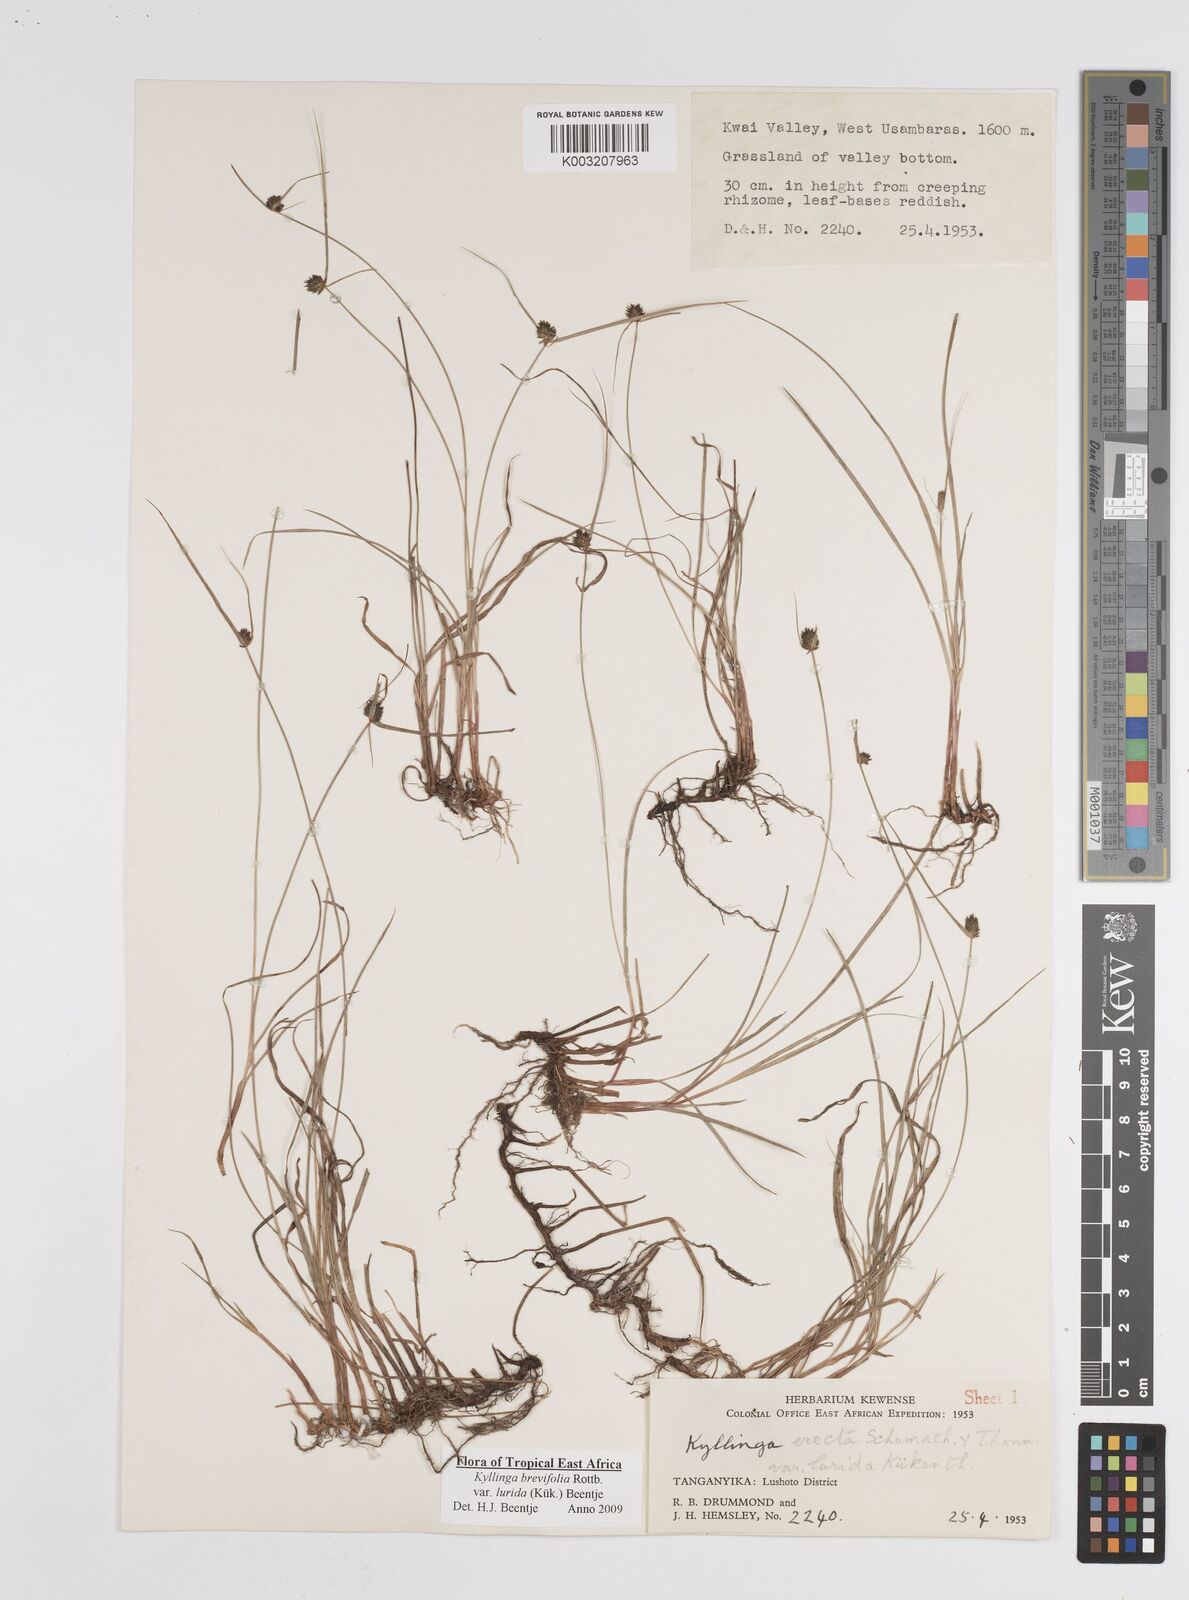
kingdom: Plantae
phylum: Tracheophyta
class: Liliopsida
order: Poales
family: Cyperaceae
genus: Cyperus
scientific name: Cyperus erectus
